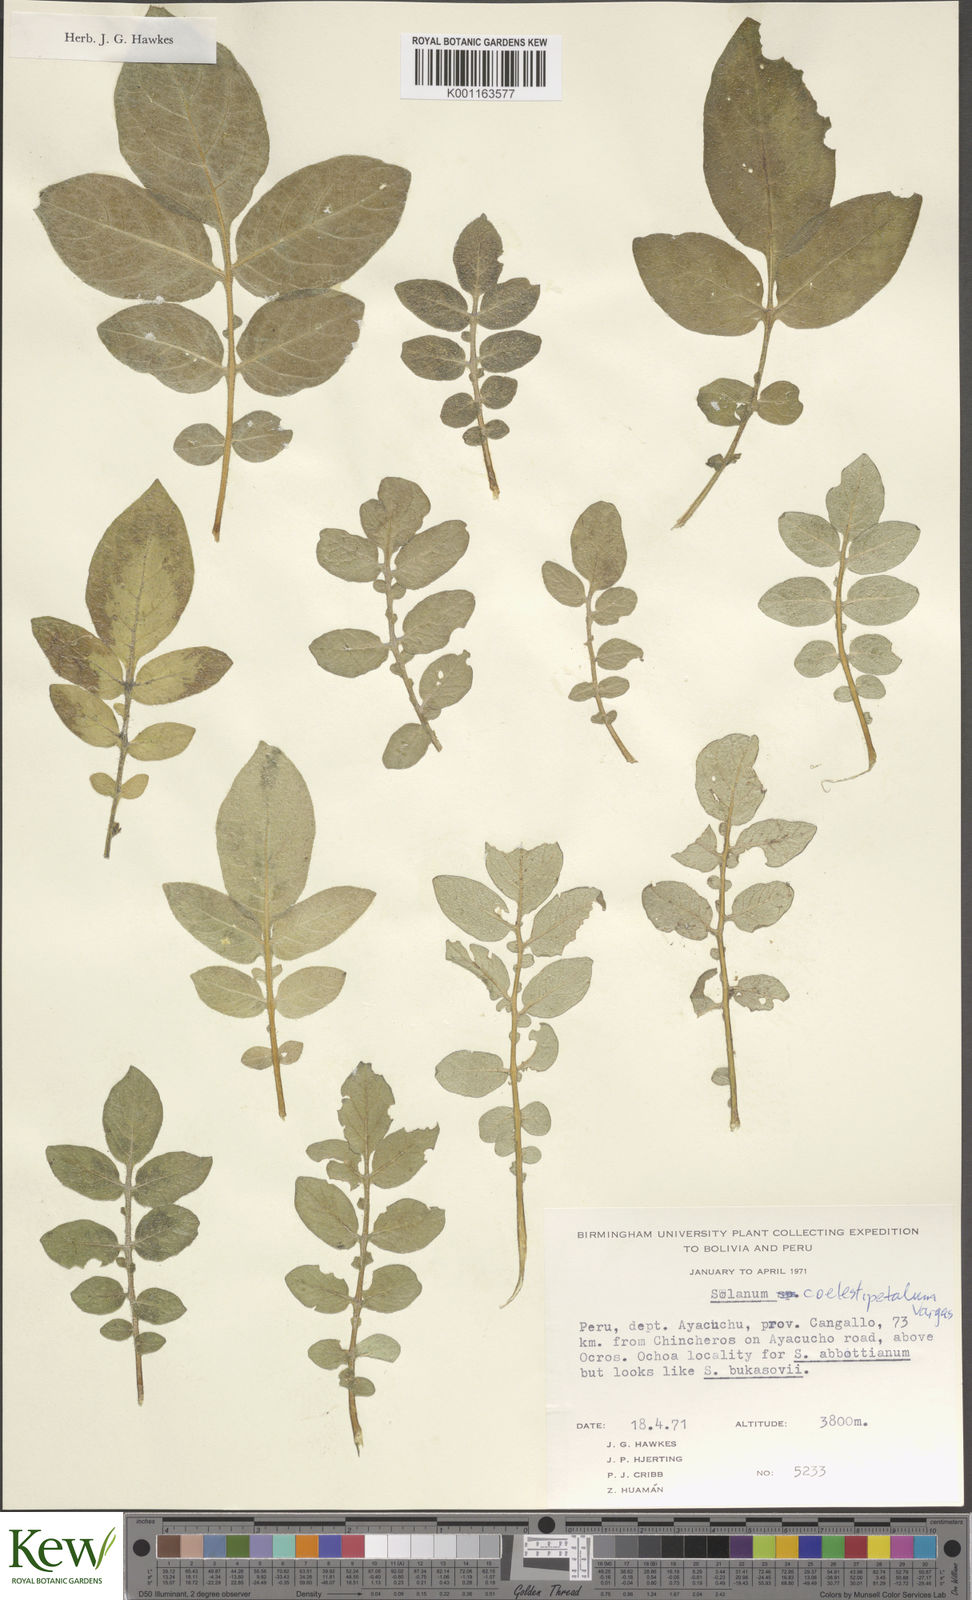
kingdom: Plantae
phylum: Tracheophyta
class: Magnoliopsida
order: Solanales
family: Solanaceae
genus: Solanum
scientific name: Solanum brevicaule
